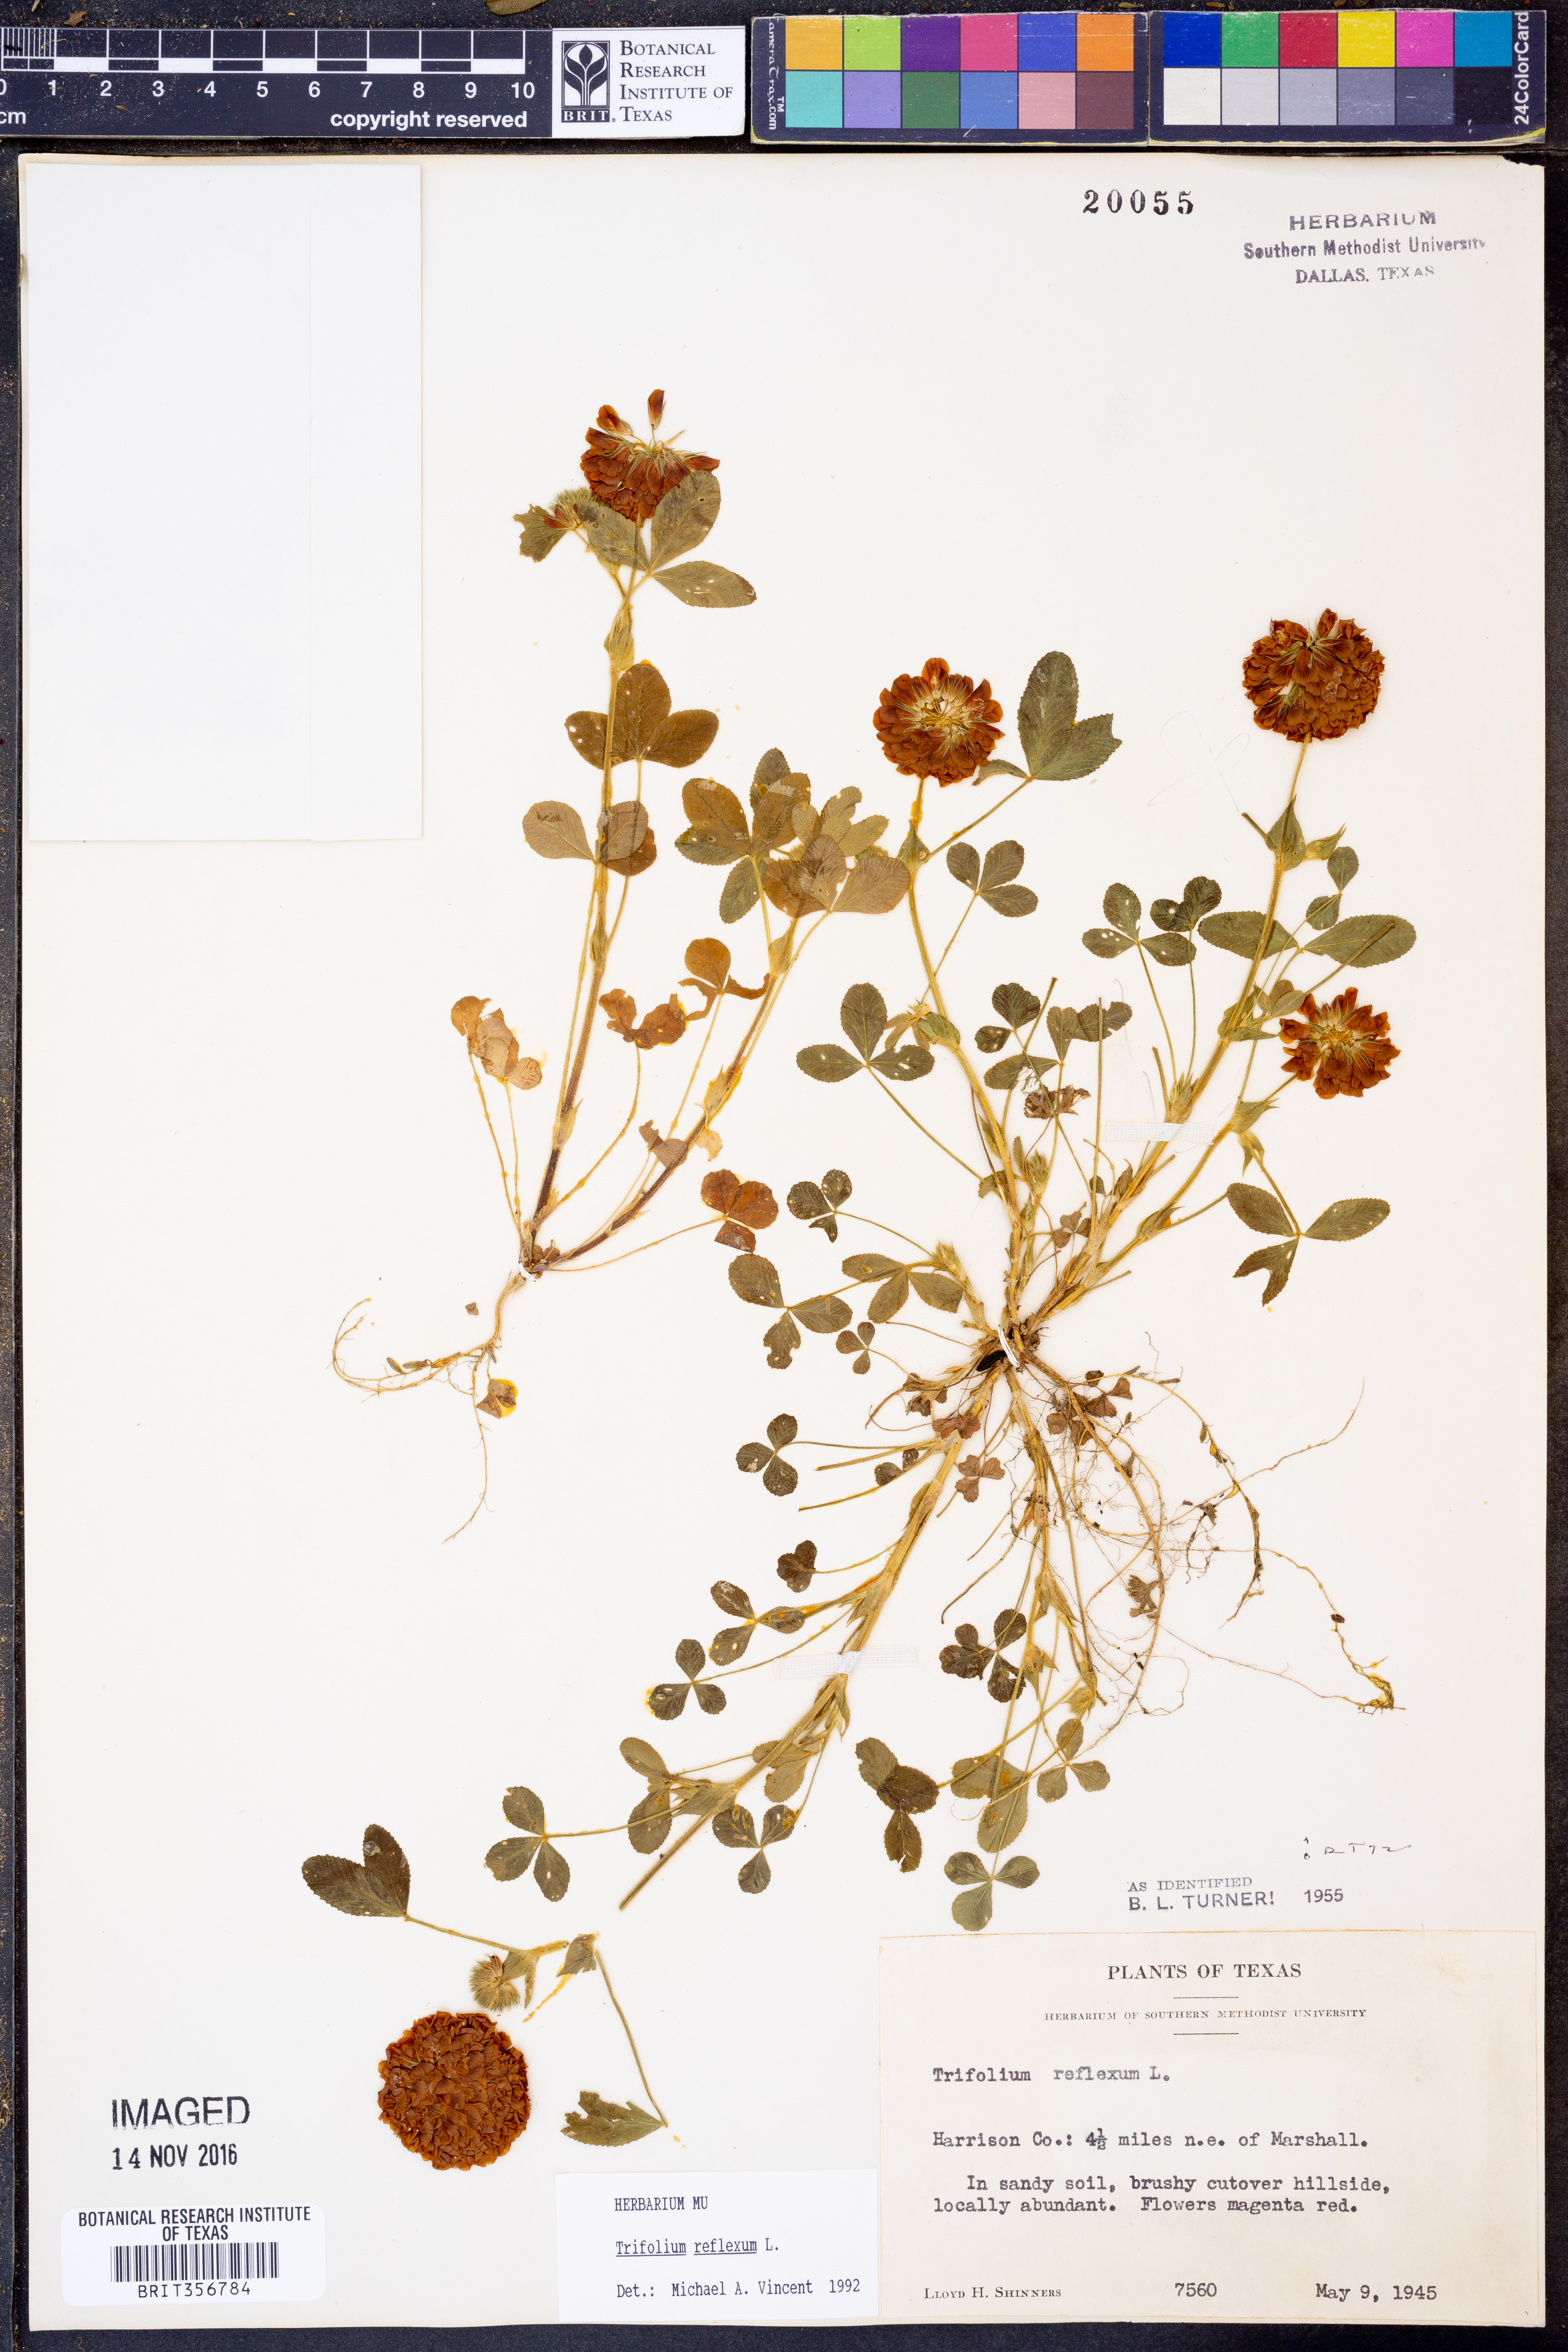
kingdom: Plantae
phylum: Tracheophyta
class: Magnoliopsida
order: Fabales
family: Fabaceae
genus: Trifolium
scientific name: Trifolium reflexum
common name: Buffalo clover
